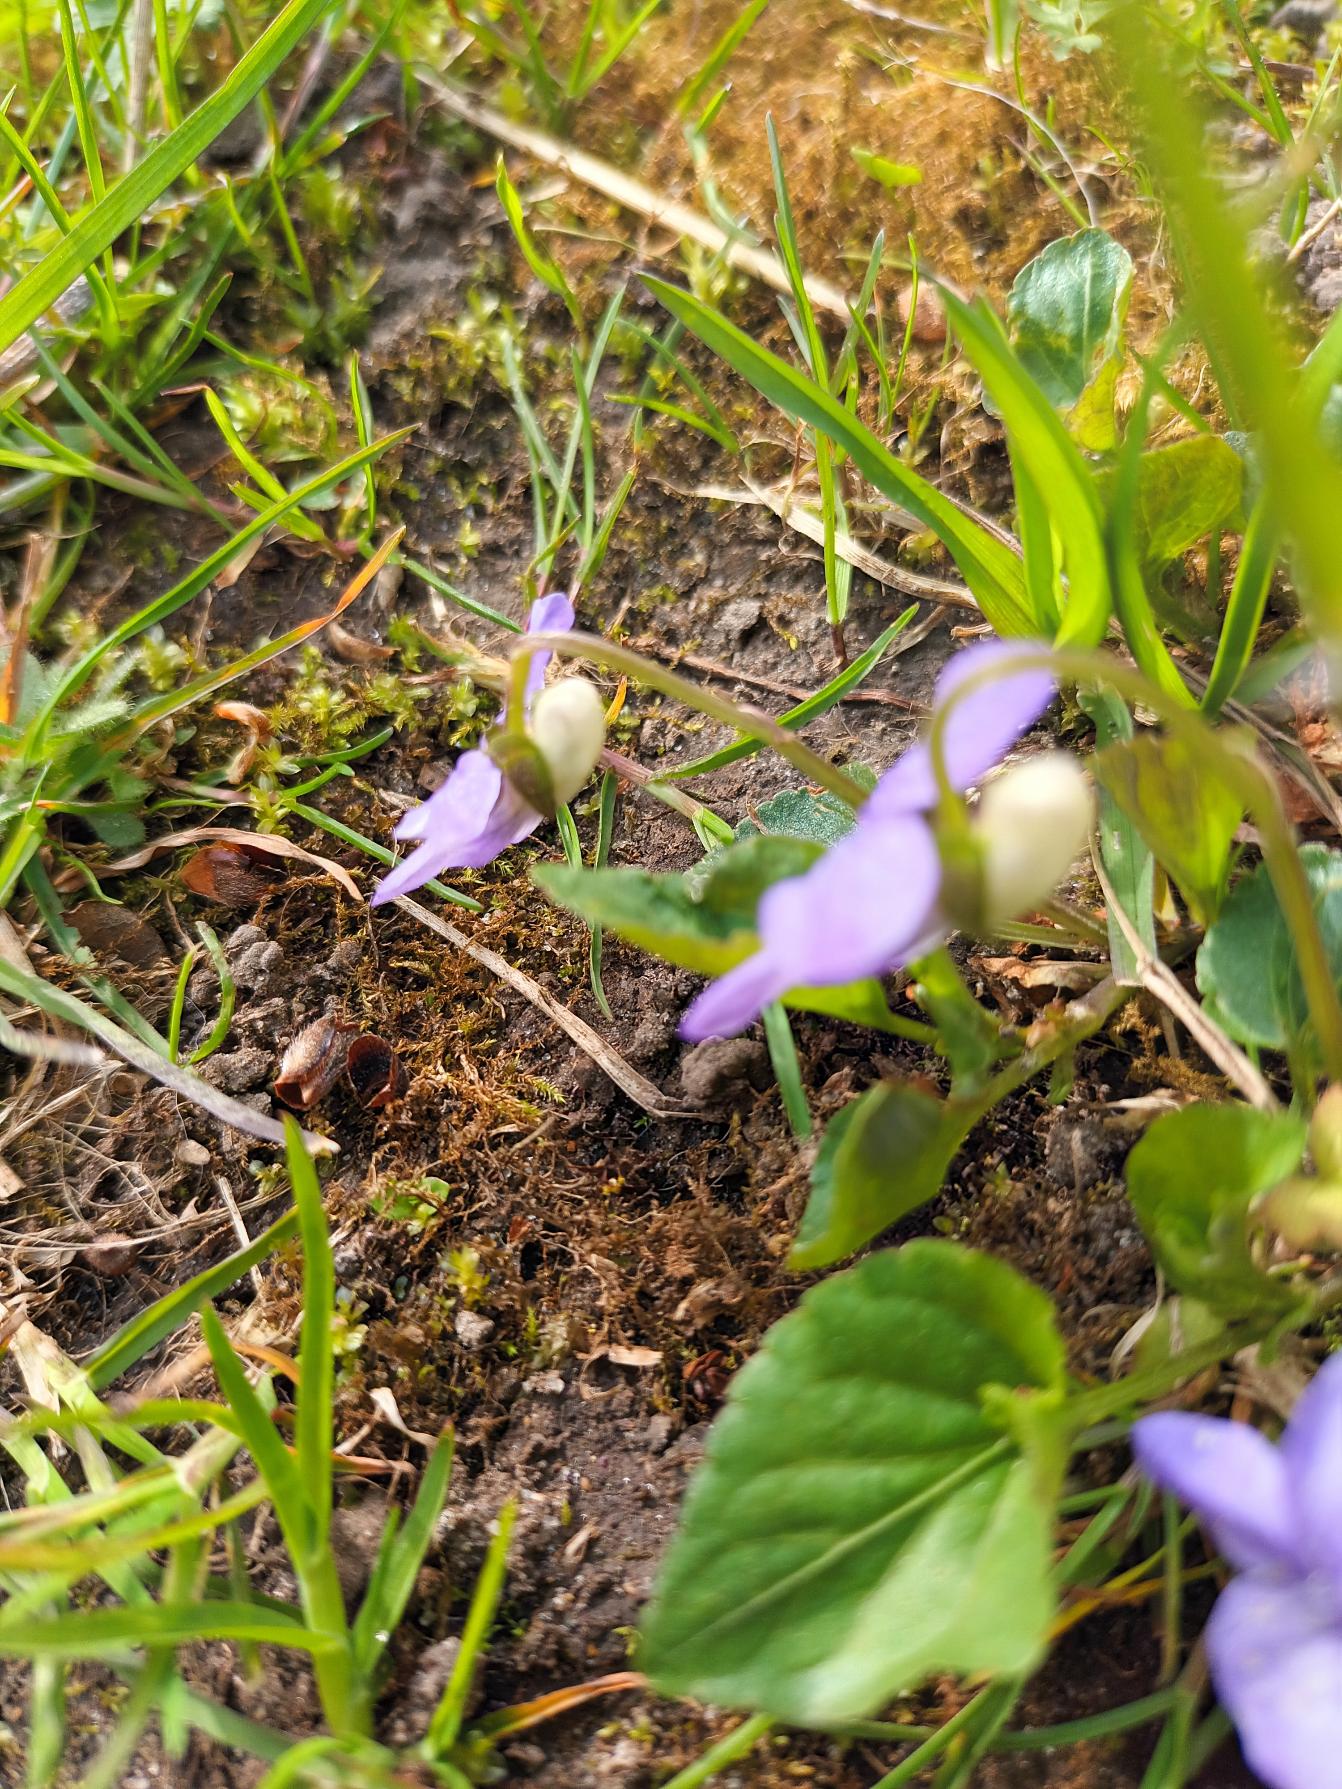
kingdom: Plantae
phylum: Tracheophyta
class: Magnoliopsida
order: Malpighiales
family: Violaceae
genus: Viola
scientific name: Viola riviniana
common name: Krat-viol
